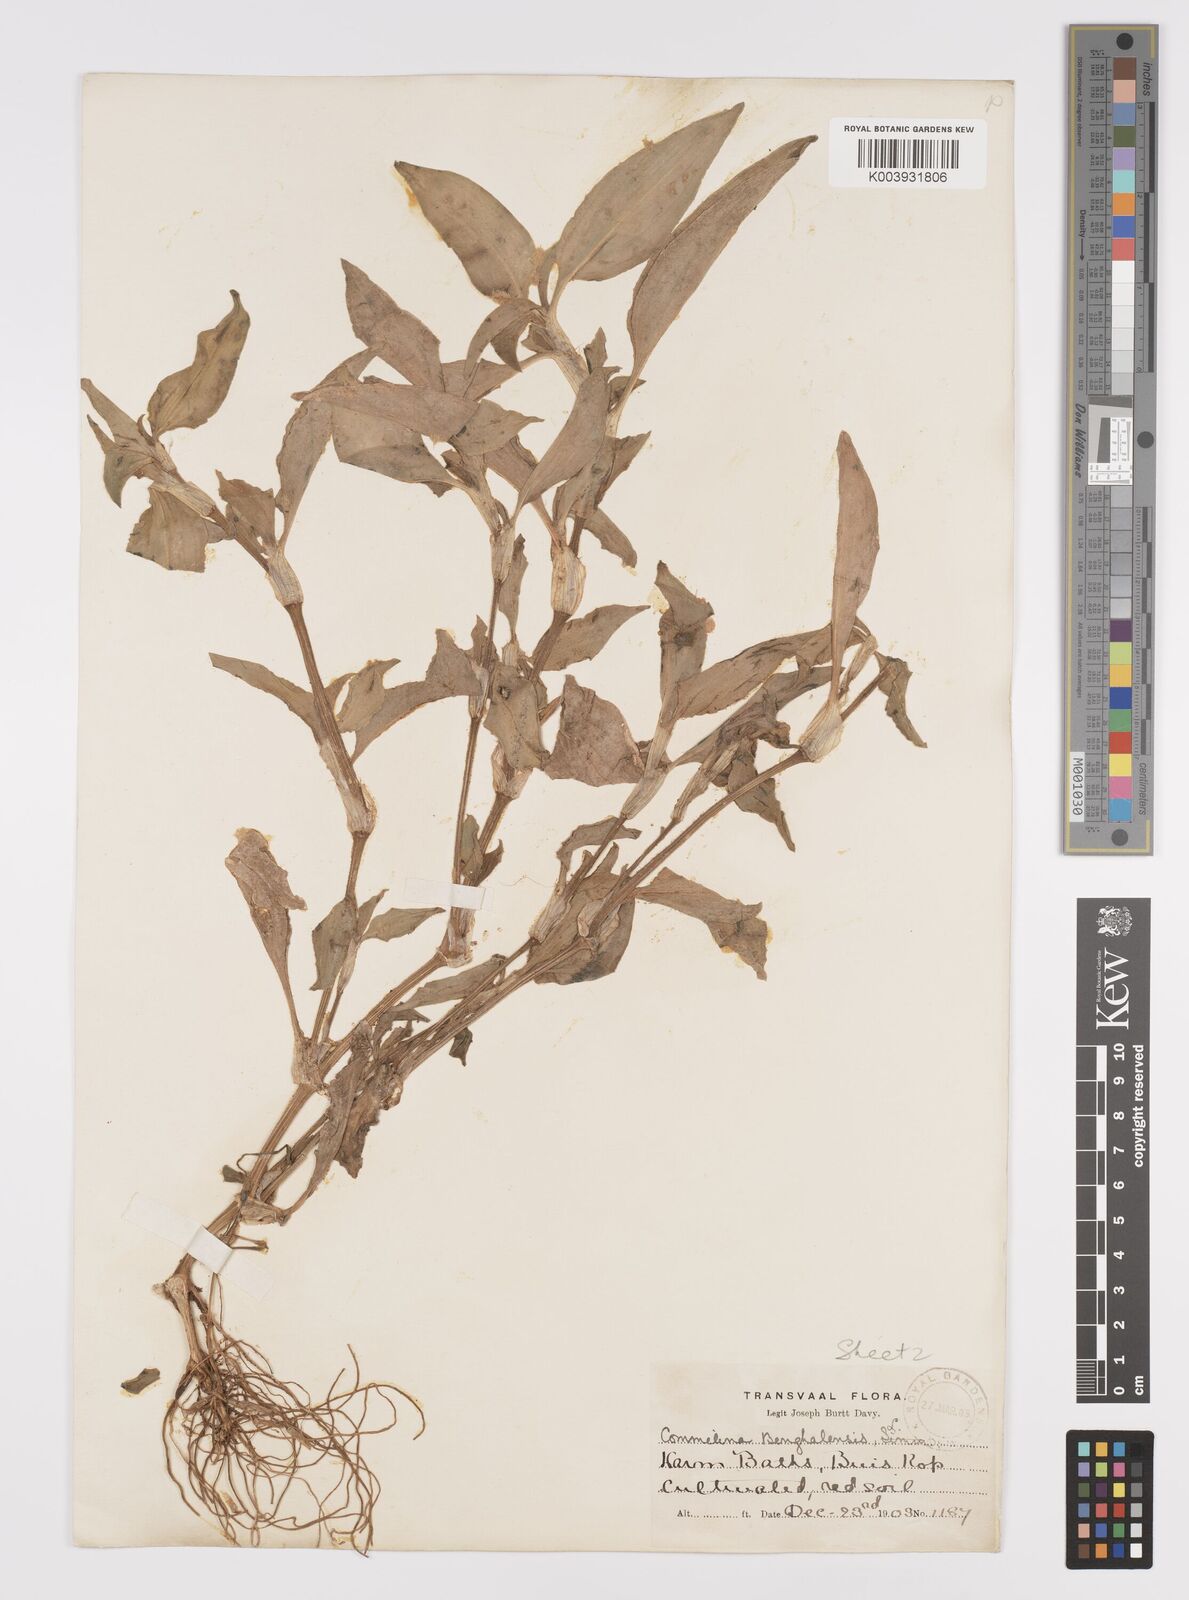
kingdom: Plantae
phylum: Tracheophyta
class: Liliopsida
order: Commelinales
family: Commelinaceae
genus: Commelina
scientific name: Commelina benghalensis
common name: Jio
